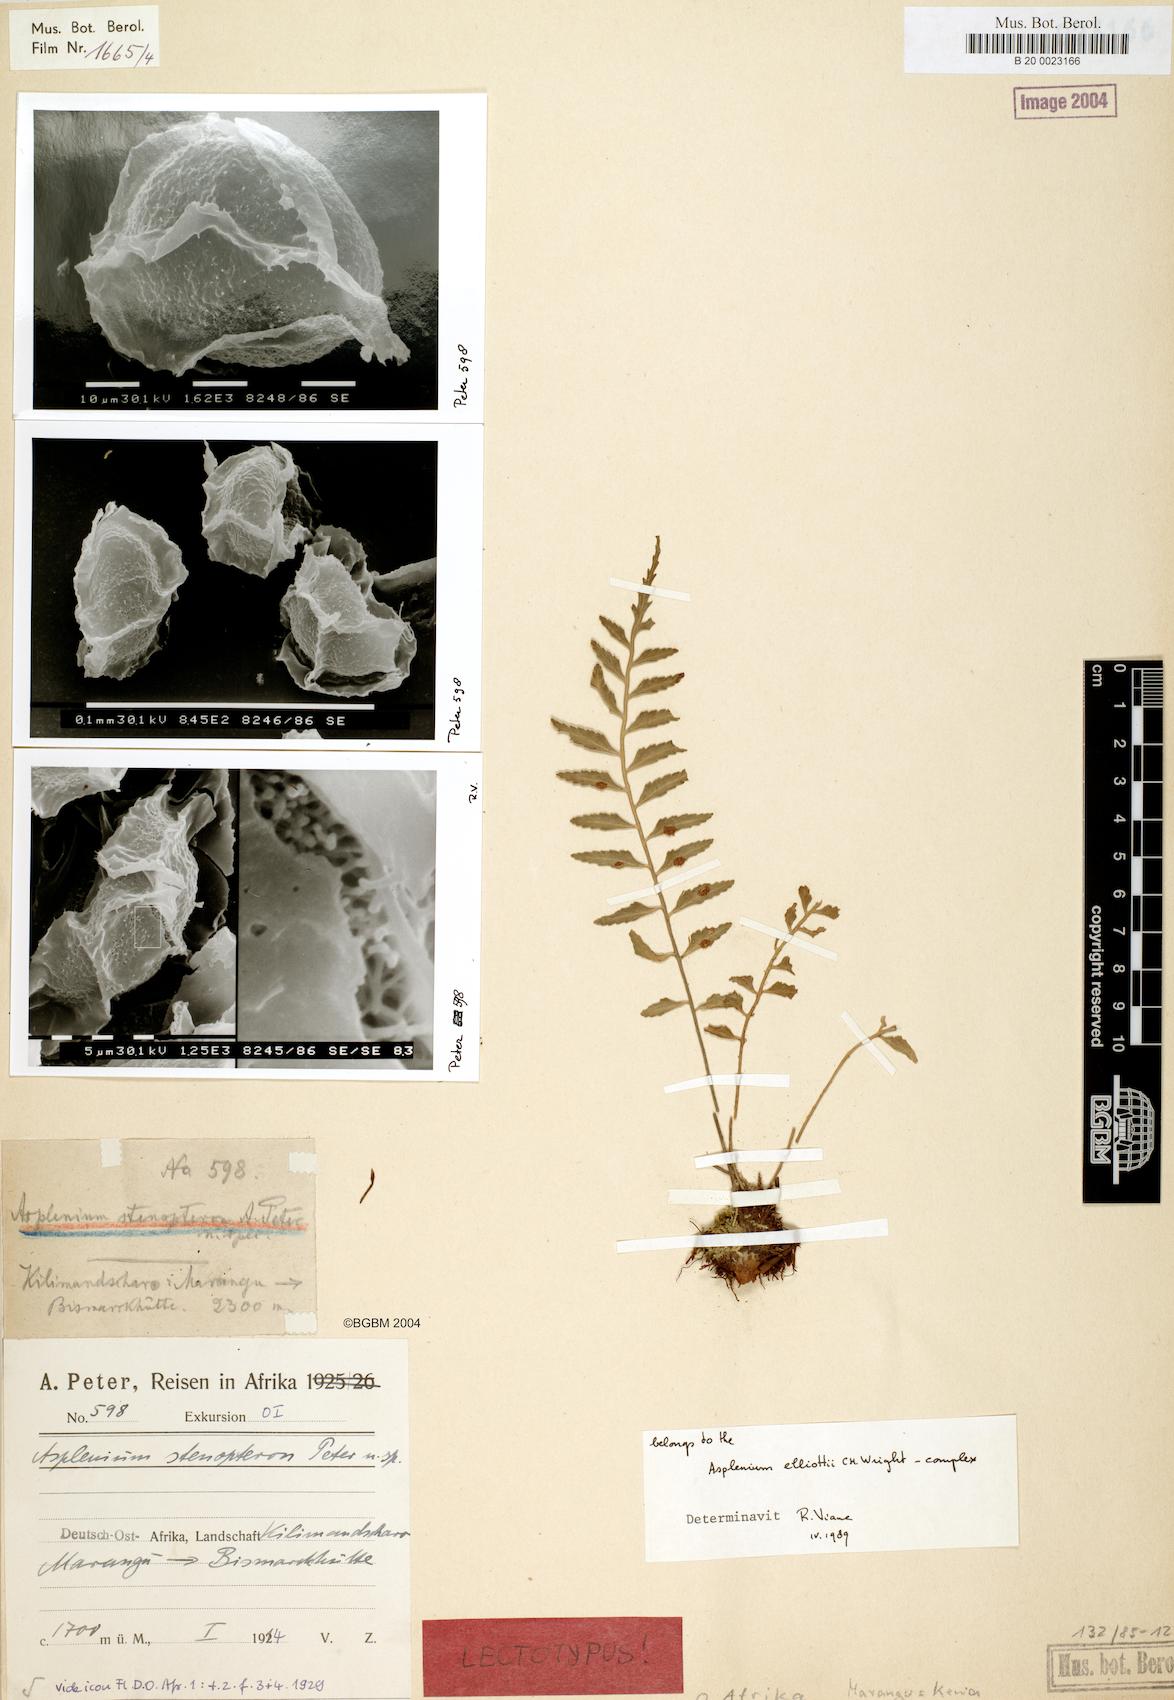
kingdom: Plantae
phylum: Tracheophyta
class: Polypodiopsida
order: Polypodiales
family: Aspleniaceae
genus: Asplenium
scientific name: Asplenium elliottii
